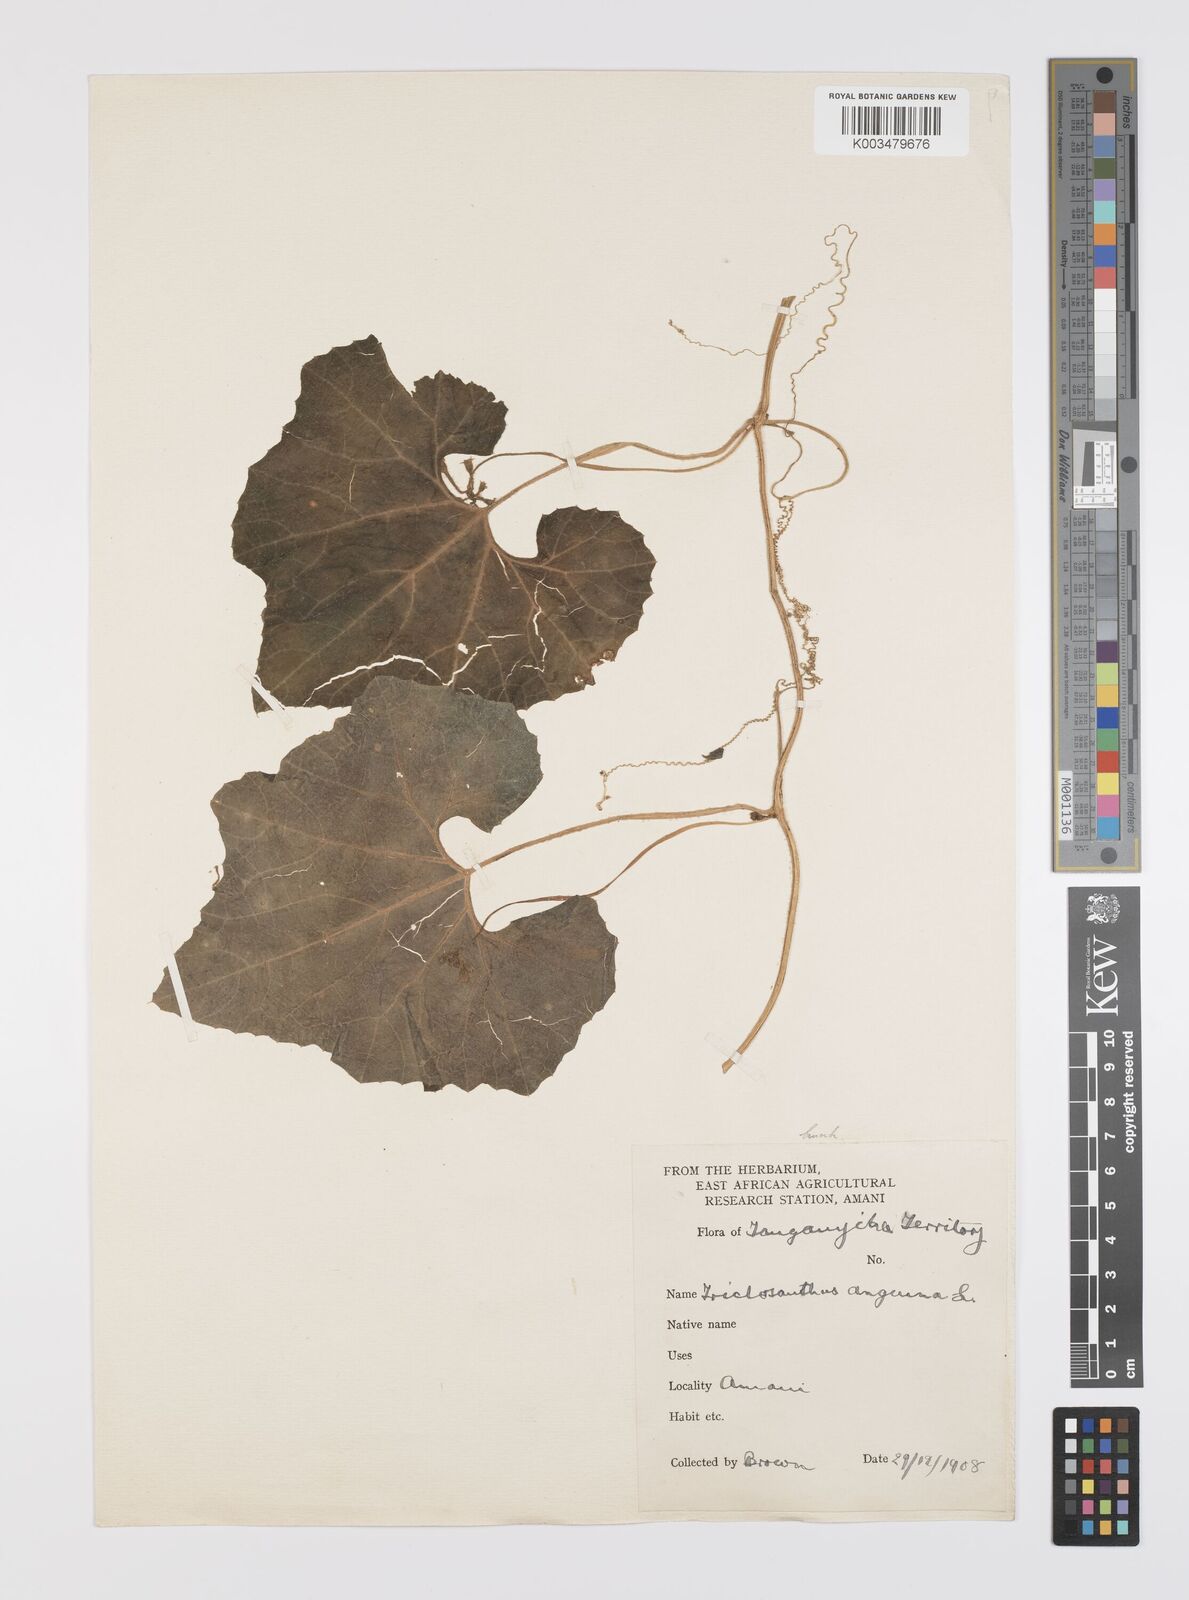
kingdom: Plantae
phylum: Tracheophyta
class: Magnoliopsida
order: Cucurbitales
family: Cucurbitaceae
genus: Trichosanthes
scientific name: Trichosanthes cucumerina
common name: Snakegourd
